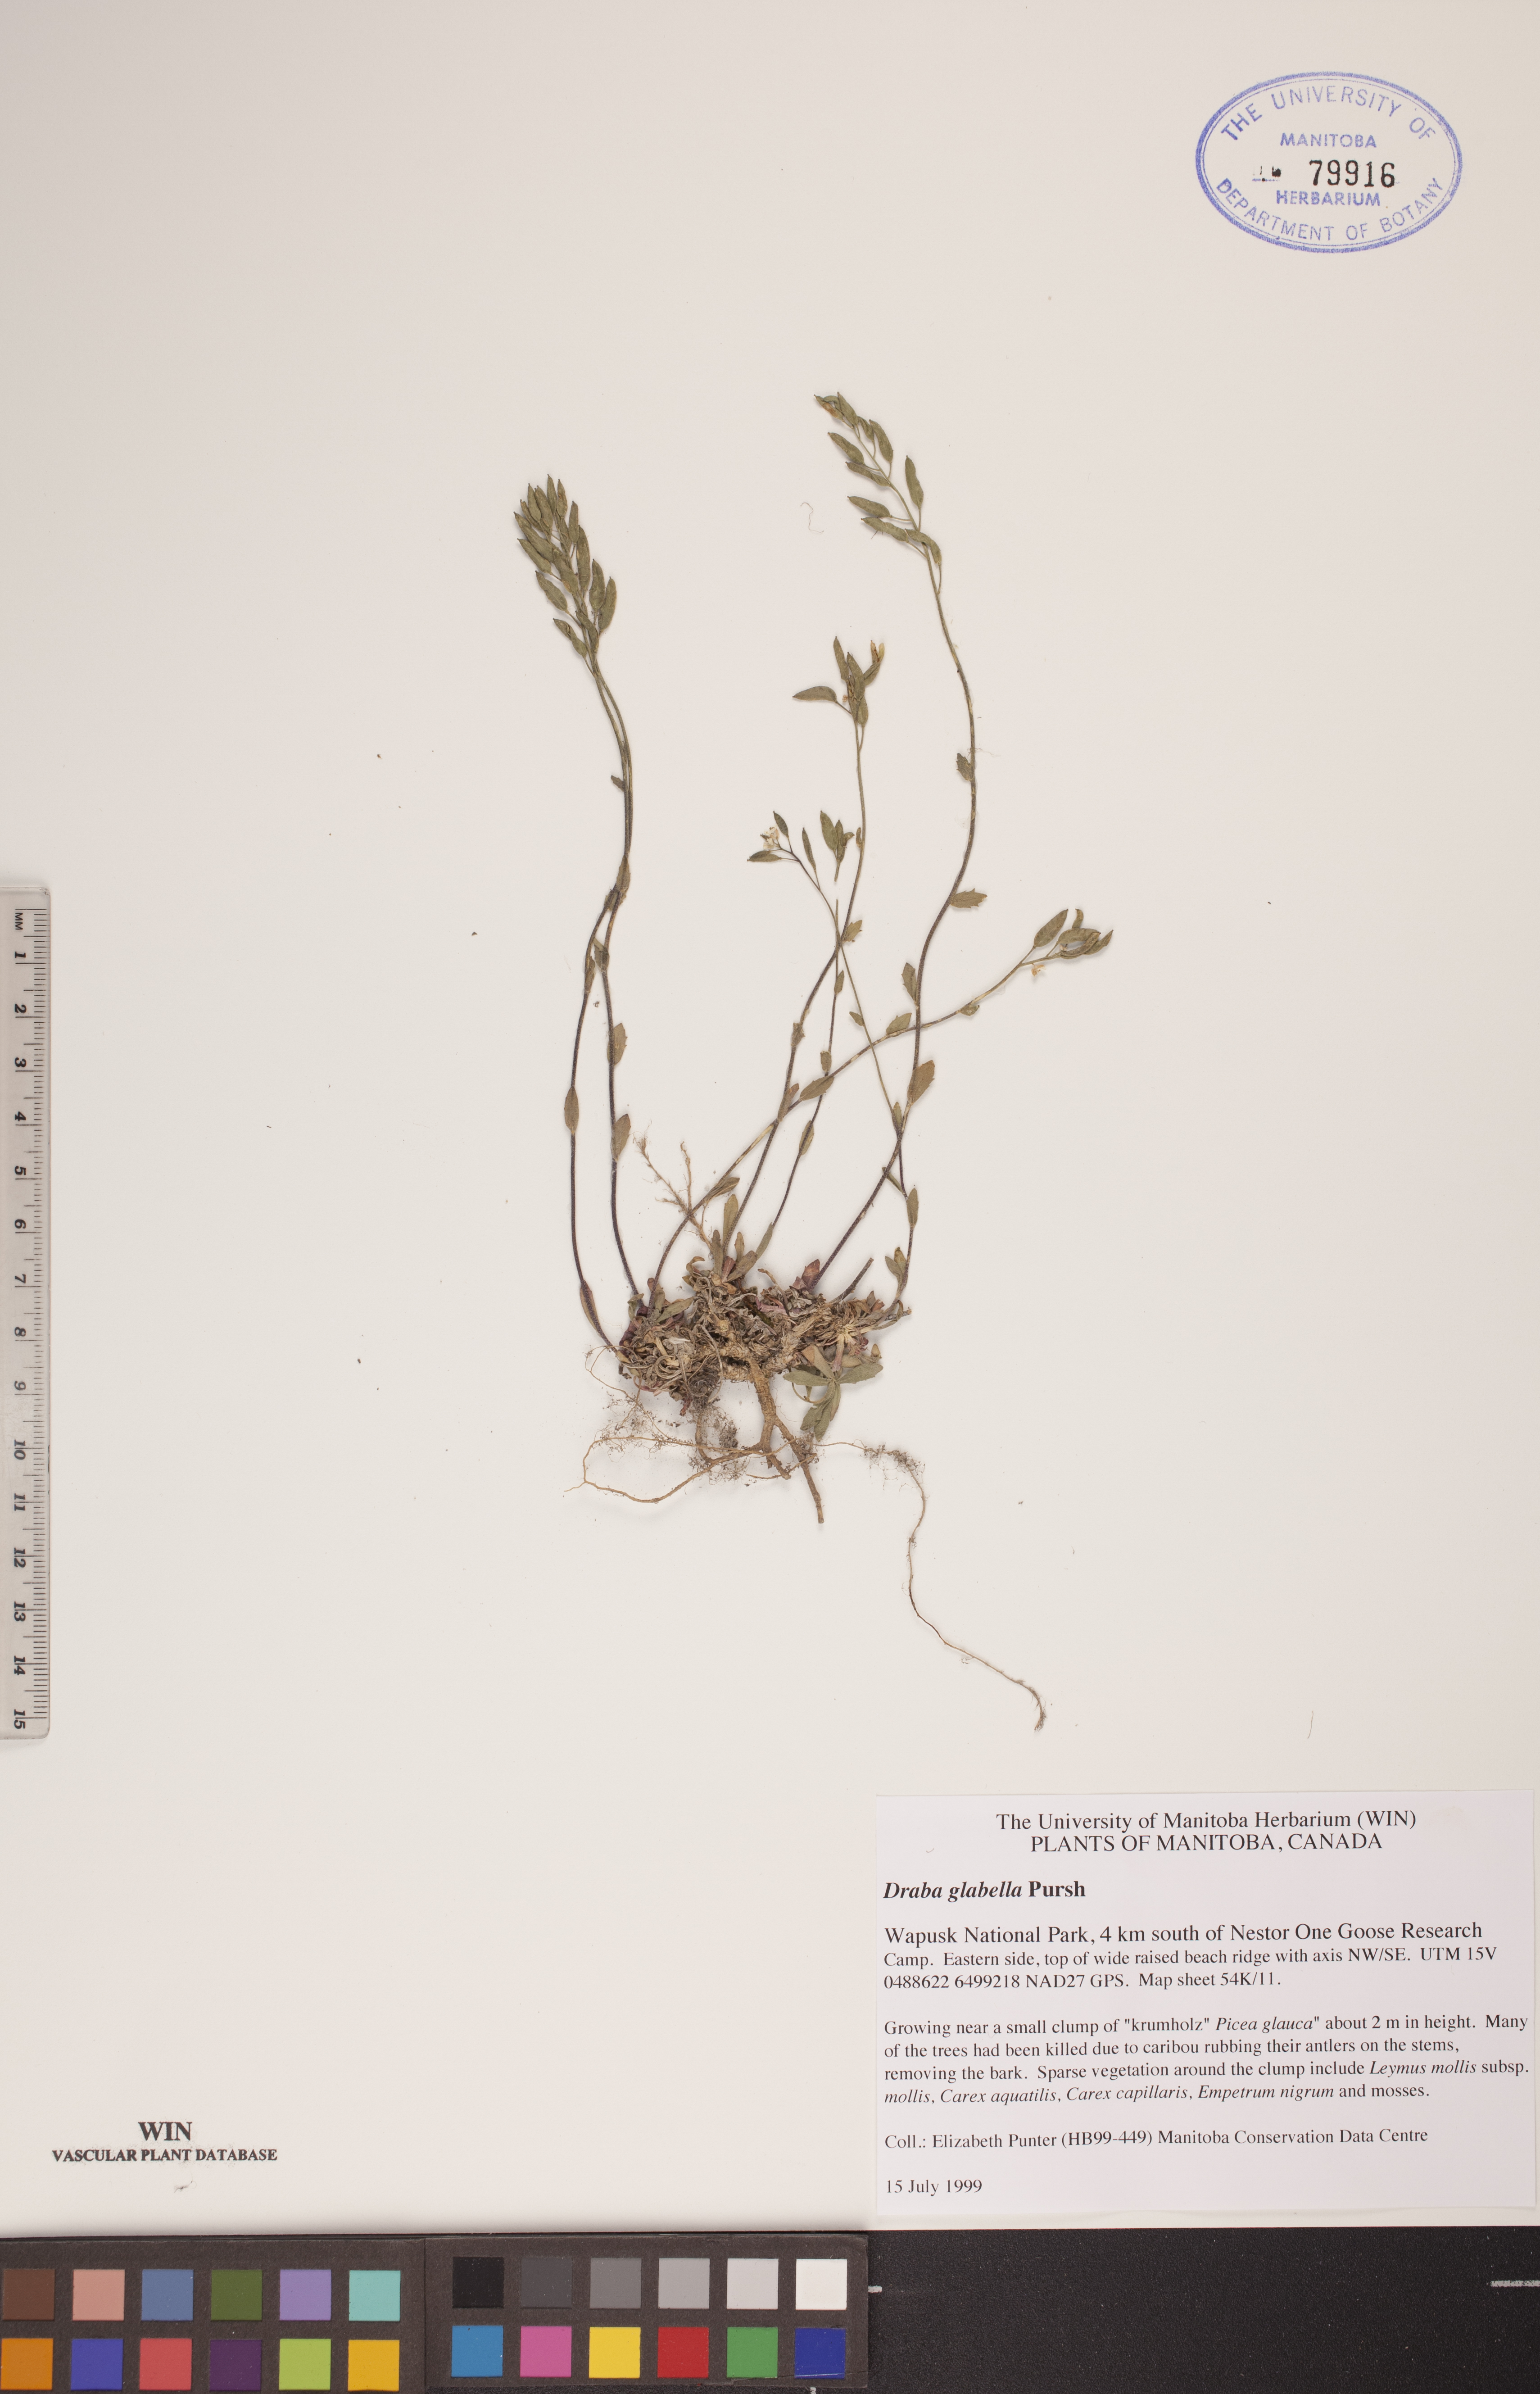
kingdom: Plantae
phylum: Tracheophyta
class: Magnoliopsida
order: Brassicales
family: Brassicaceae
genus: Draba
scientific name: Draba glabella
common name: Glaucous draba
